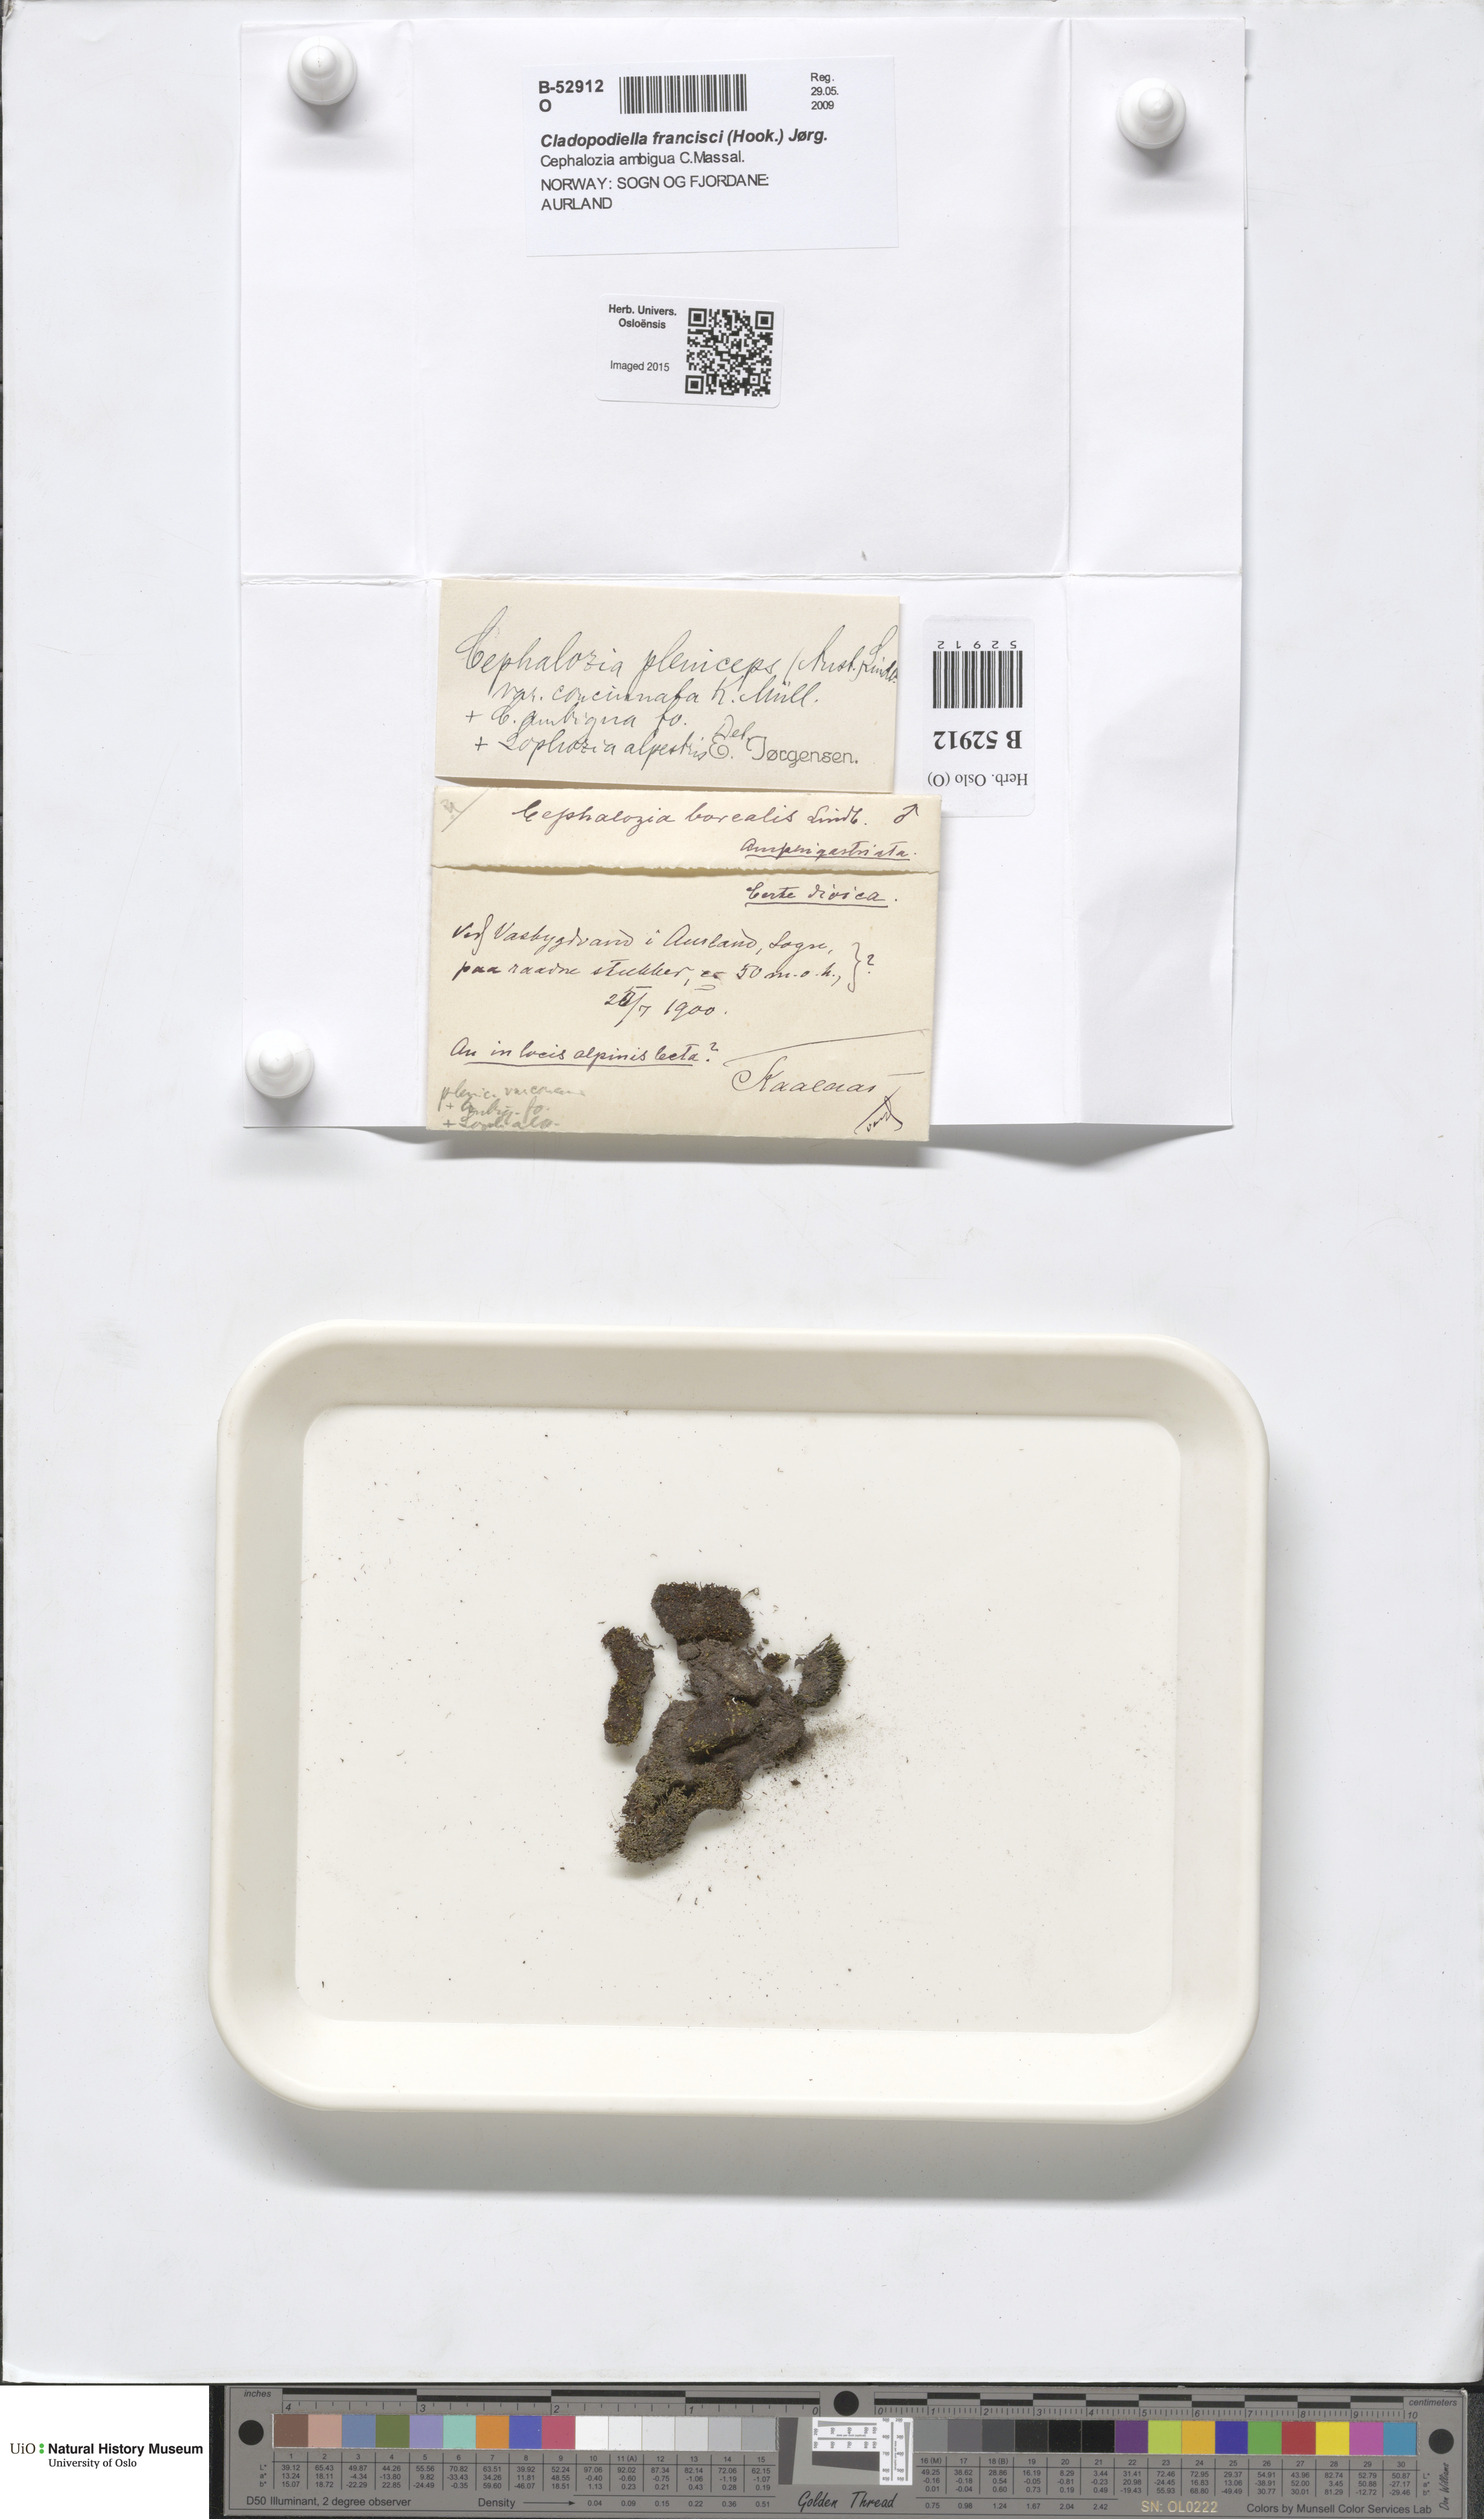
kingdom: Plantae
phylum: Marchantiophyta
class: Jungermanniopsida
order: Jungermanniales
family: Cephaloziaceae
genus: Fuscocephaloziopsis
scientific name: Fuscocephaloziopsis pleniceps
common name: Blunt pincerwort
